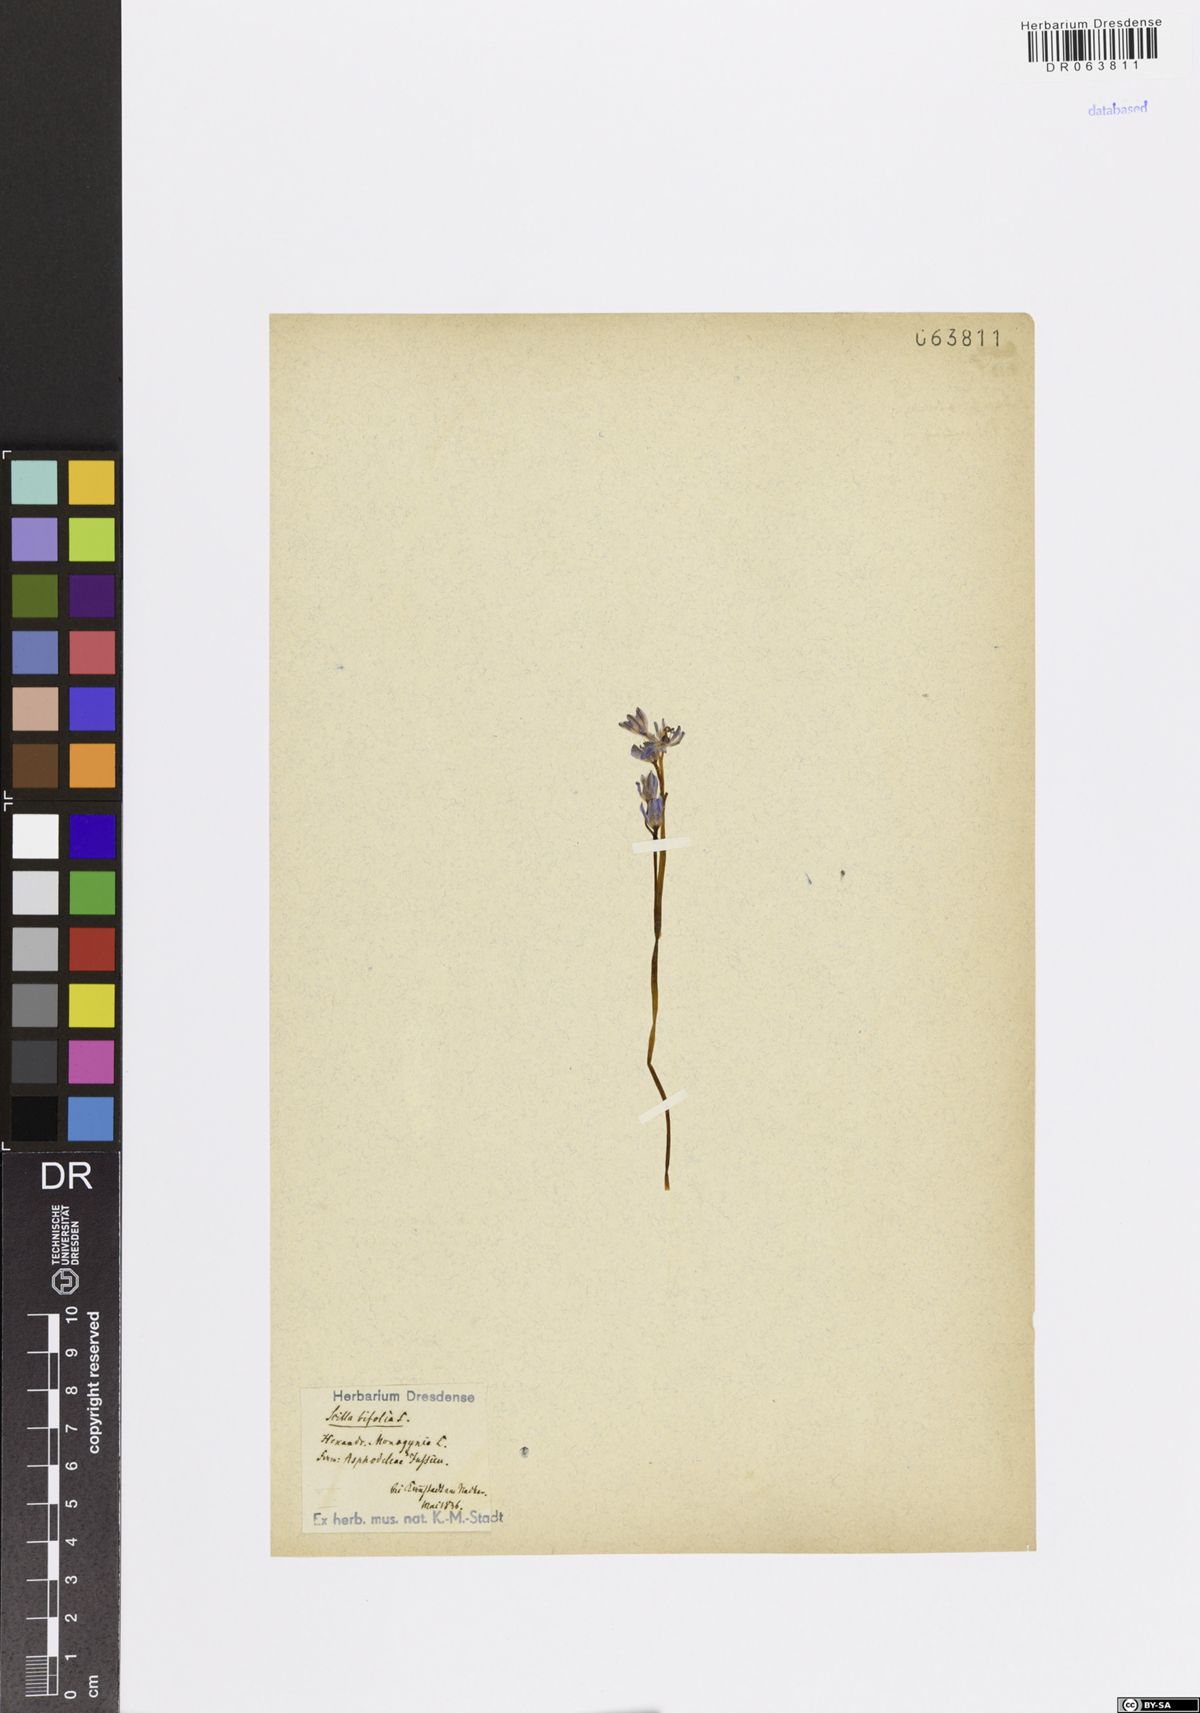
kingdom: Plantae
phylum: Tracheophyta
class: Liliopsida
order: Asparagales
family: Asparagaceae
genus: Scilla
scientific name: Scilla bifolia
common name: Alpine squill
